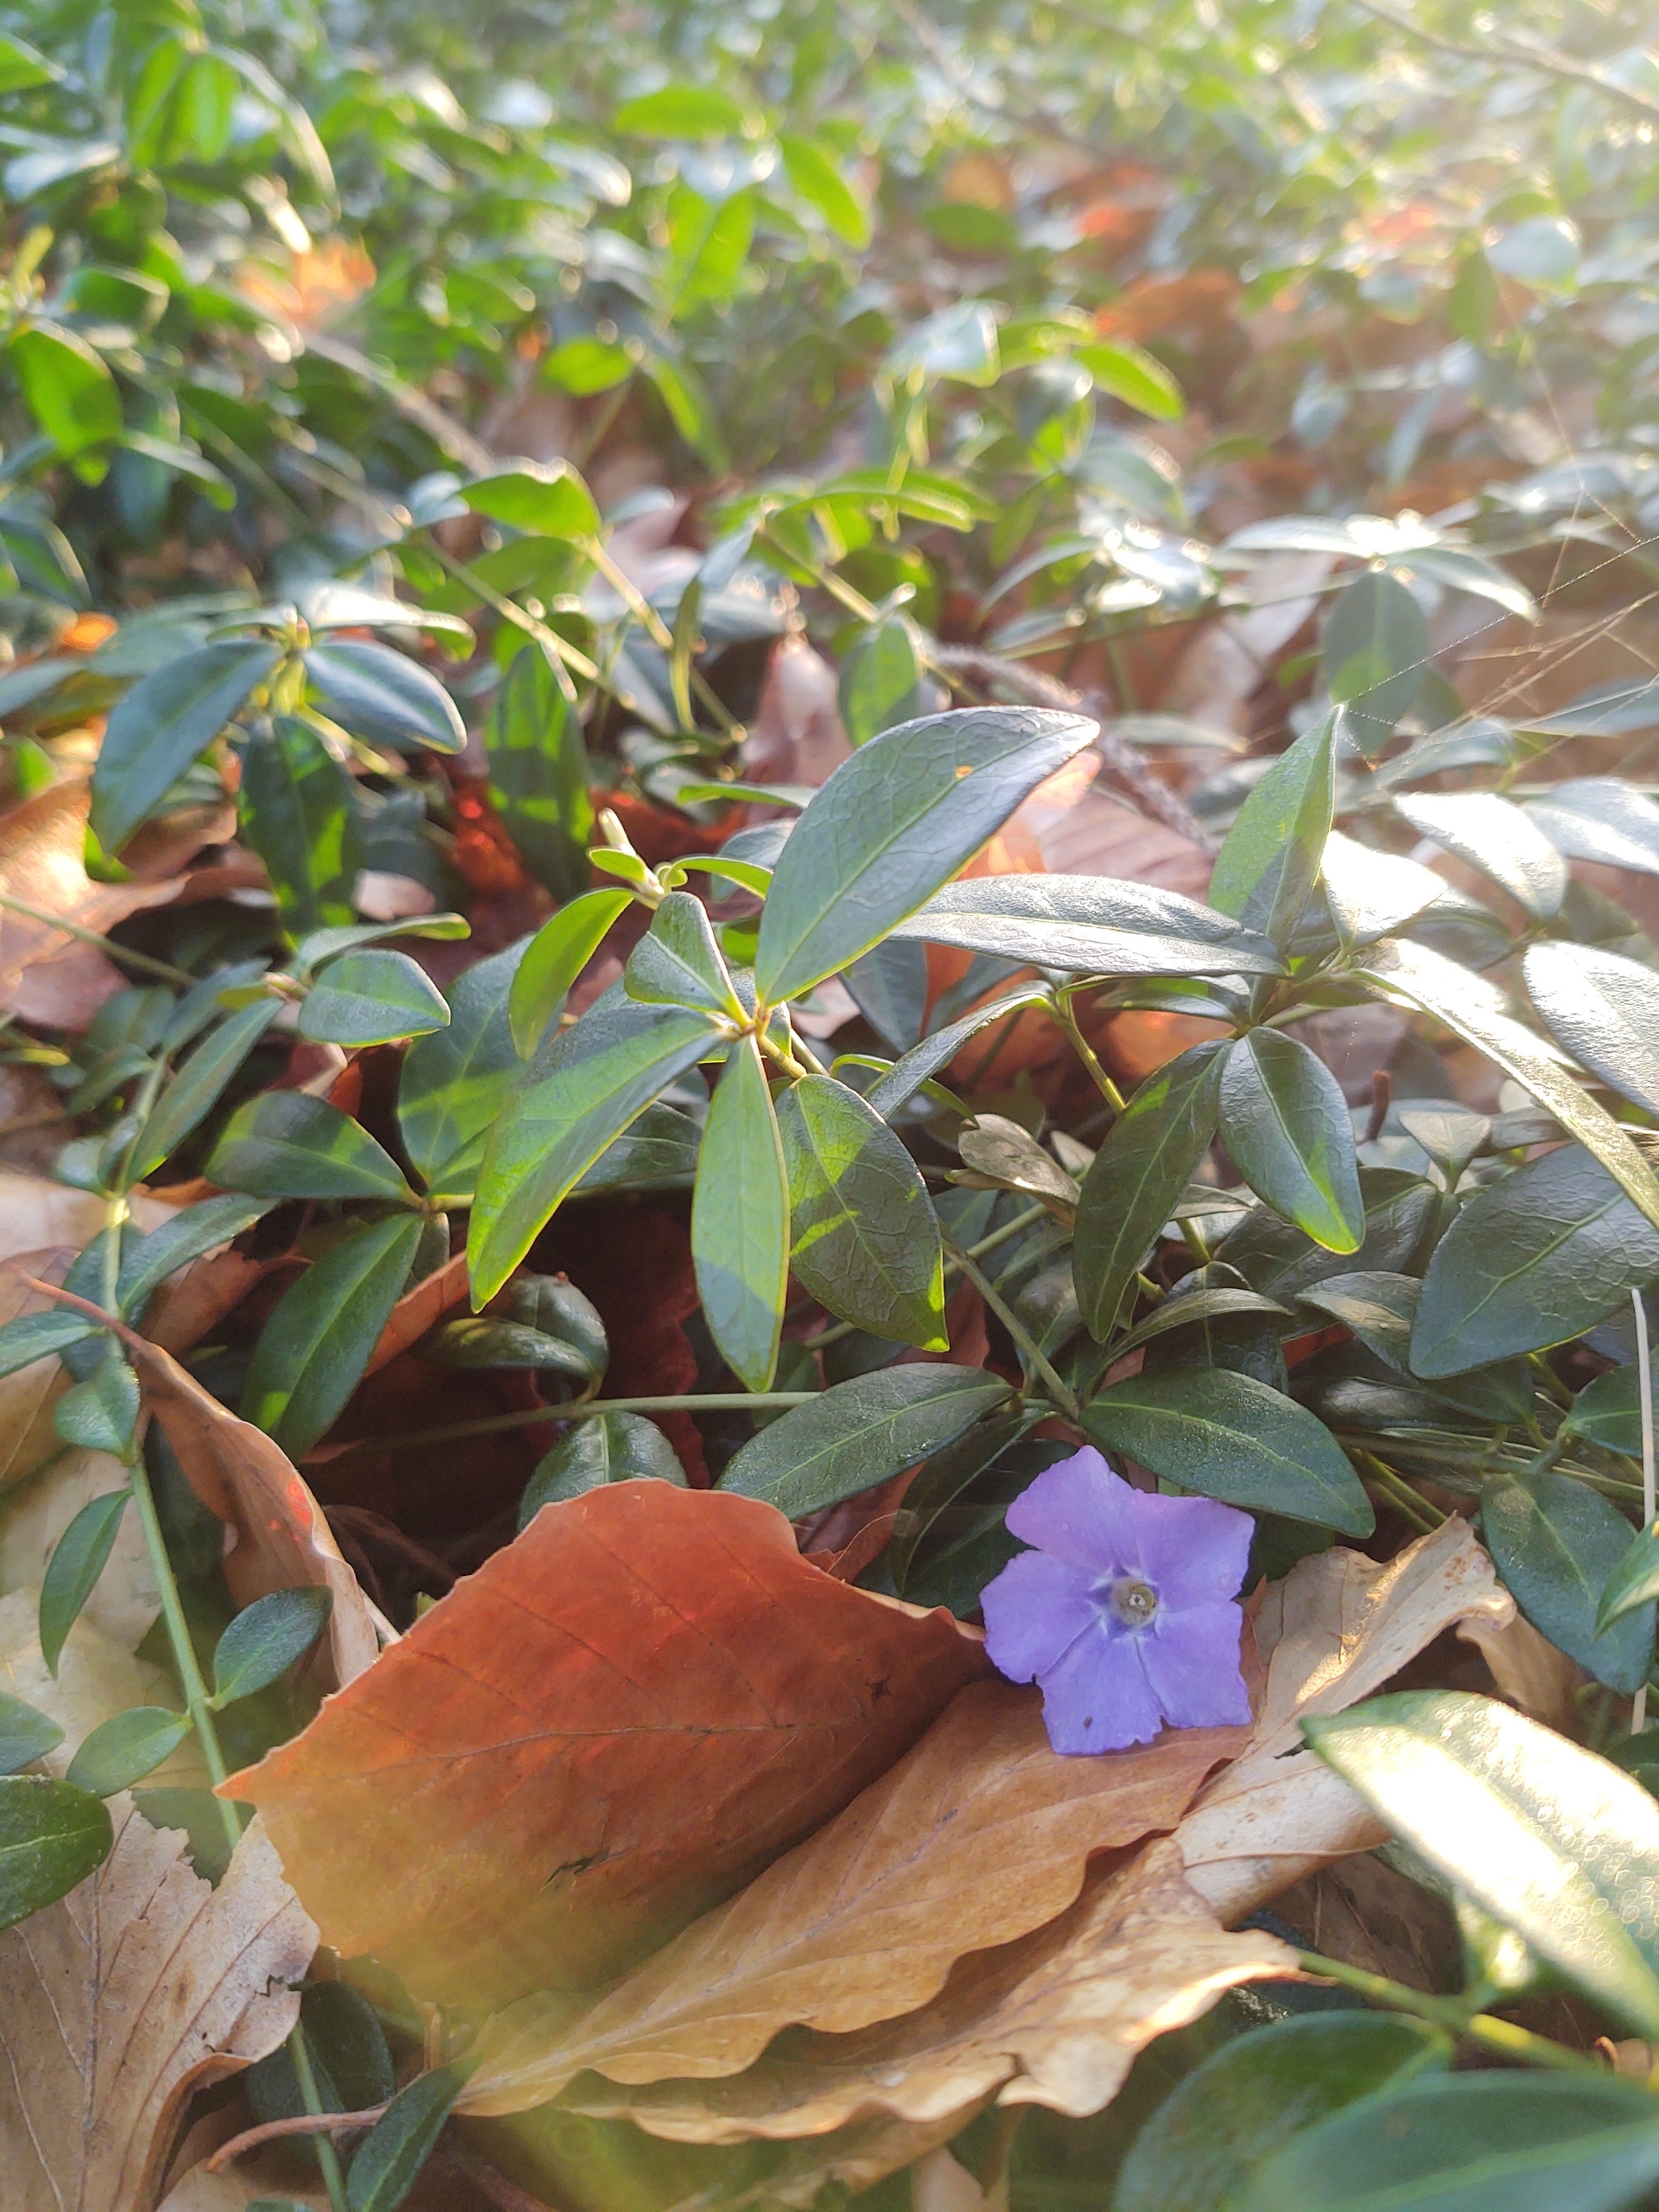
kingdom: Plantae
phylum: Tracheophyta
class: Magnoliopsida
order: Gentianales
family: Apocynaceae
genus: Vinca
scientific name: Vinca minor
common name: Liden singrøn
